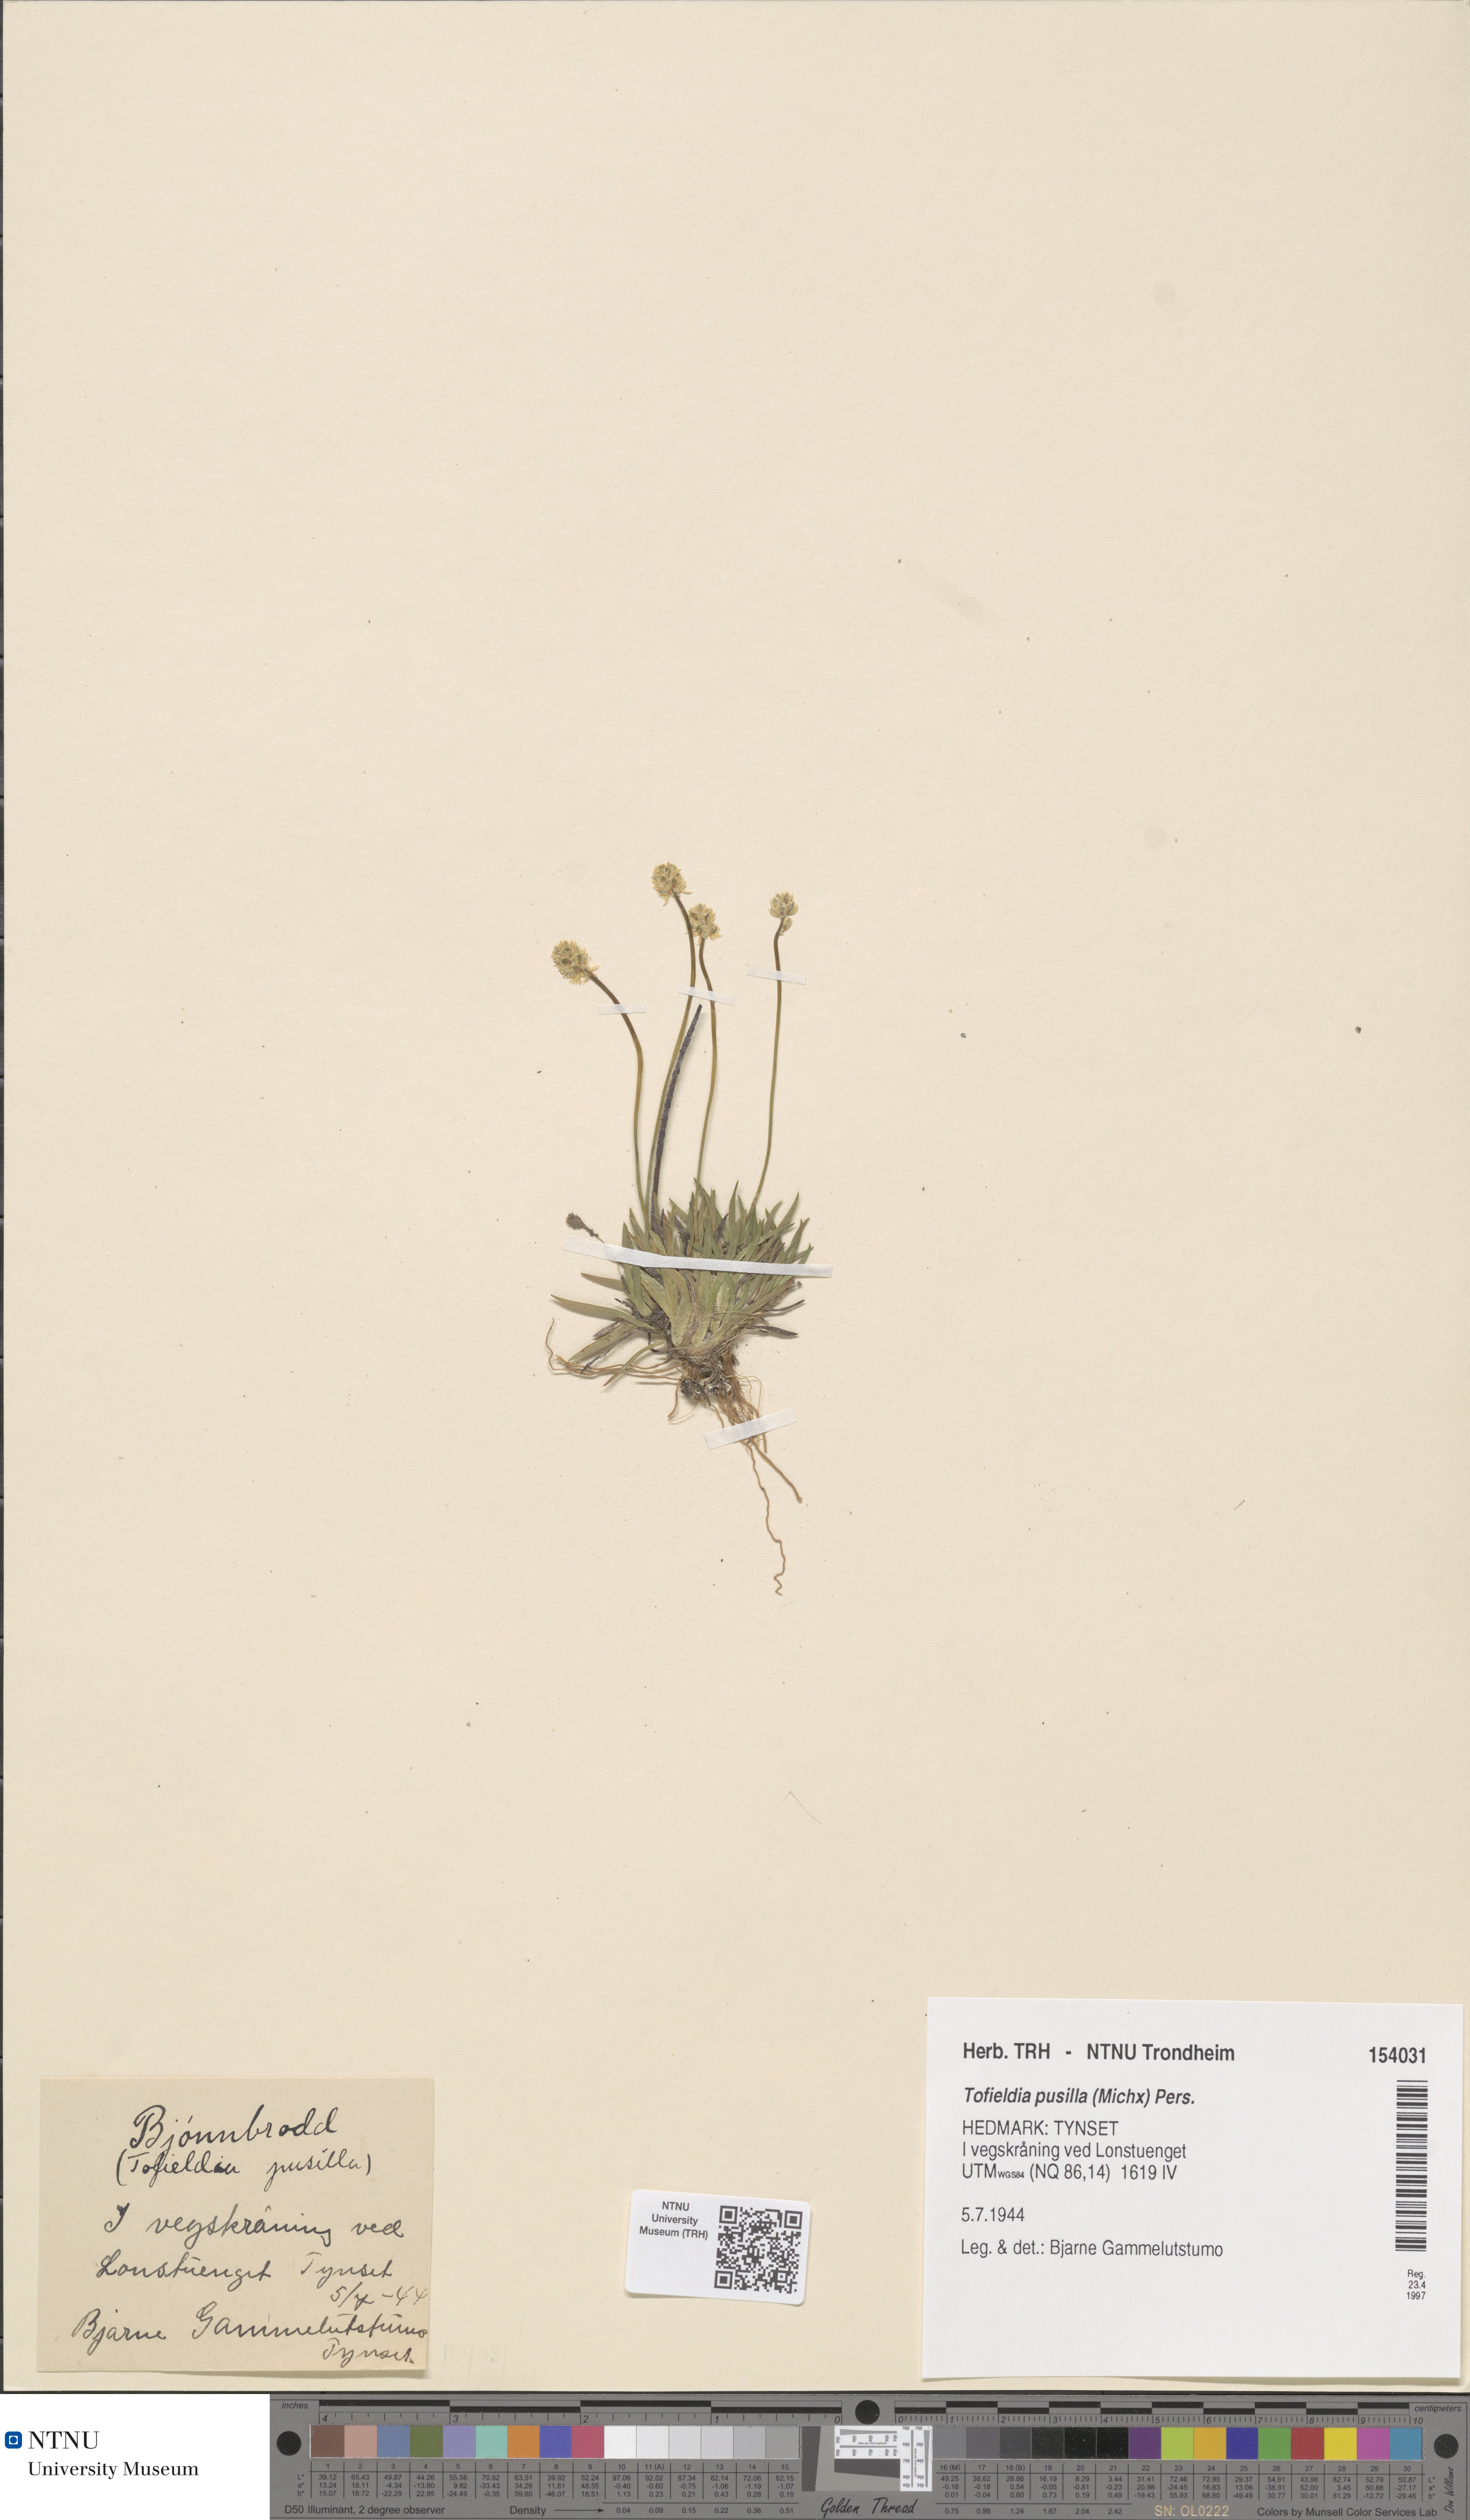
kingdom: Plantae
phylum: Tracheophyta
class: Liliopsida
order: Alismatales
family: Tofieldiaceae
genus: Tofieldia
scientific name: Tofieldia pusilla
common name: Scottish false asphodel
